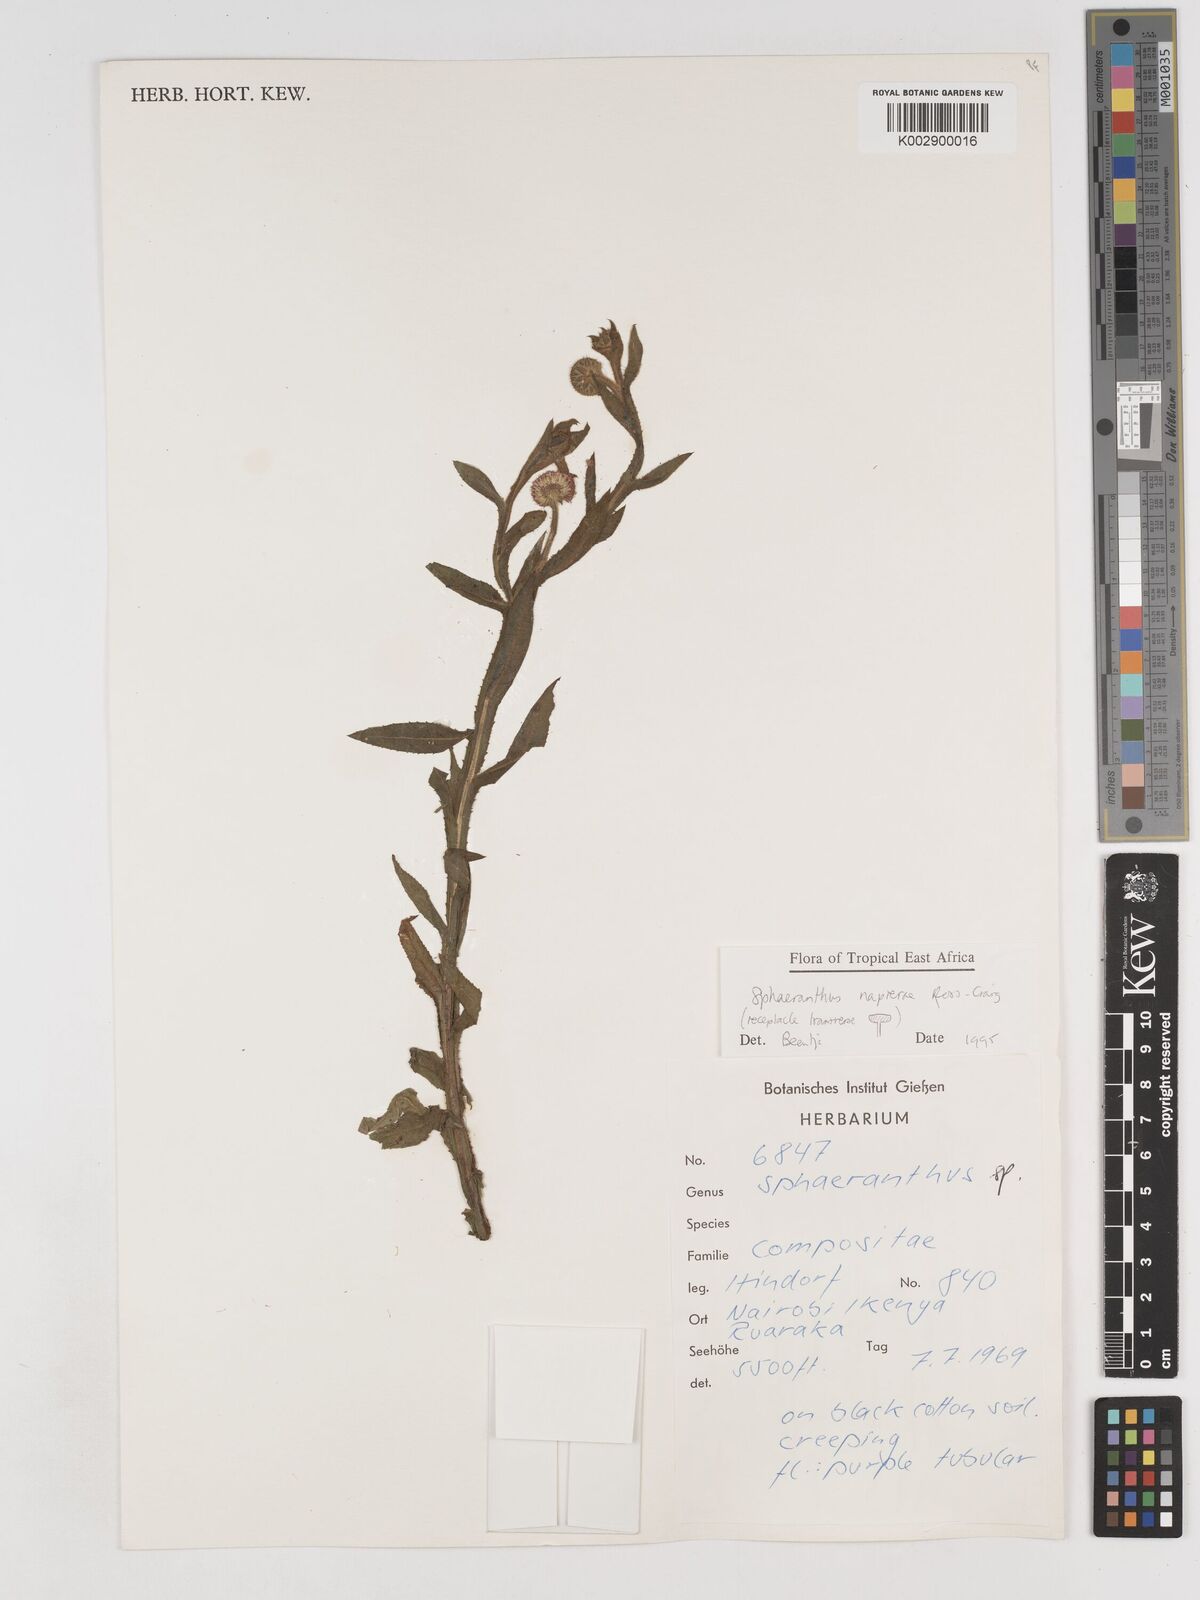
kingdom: Plantae
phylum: Tracheophyta
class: Magnoliopsida
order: Asterales
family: Asteraceae
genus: Sphaeranthus
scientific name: Sphaeranthus suaveolens
